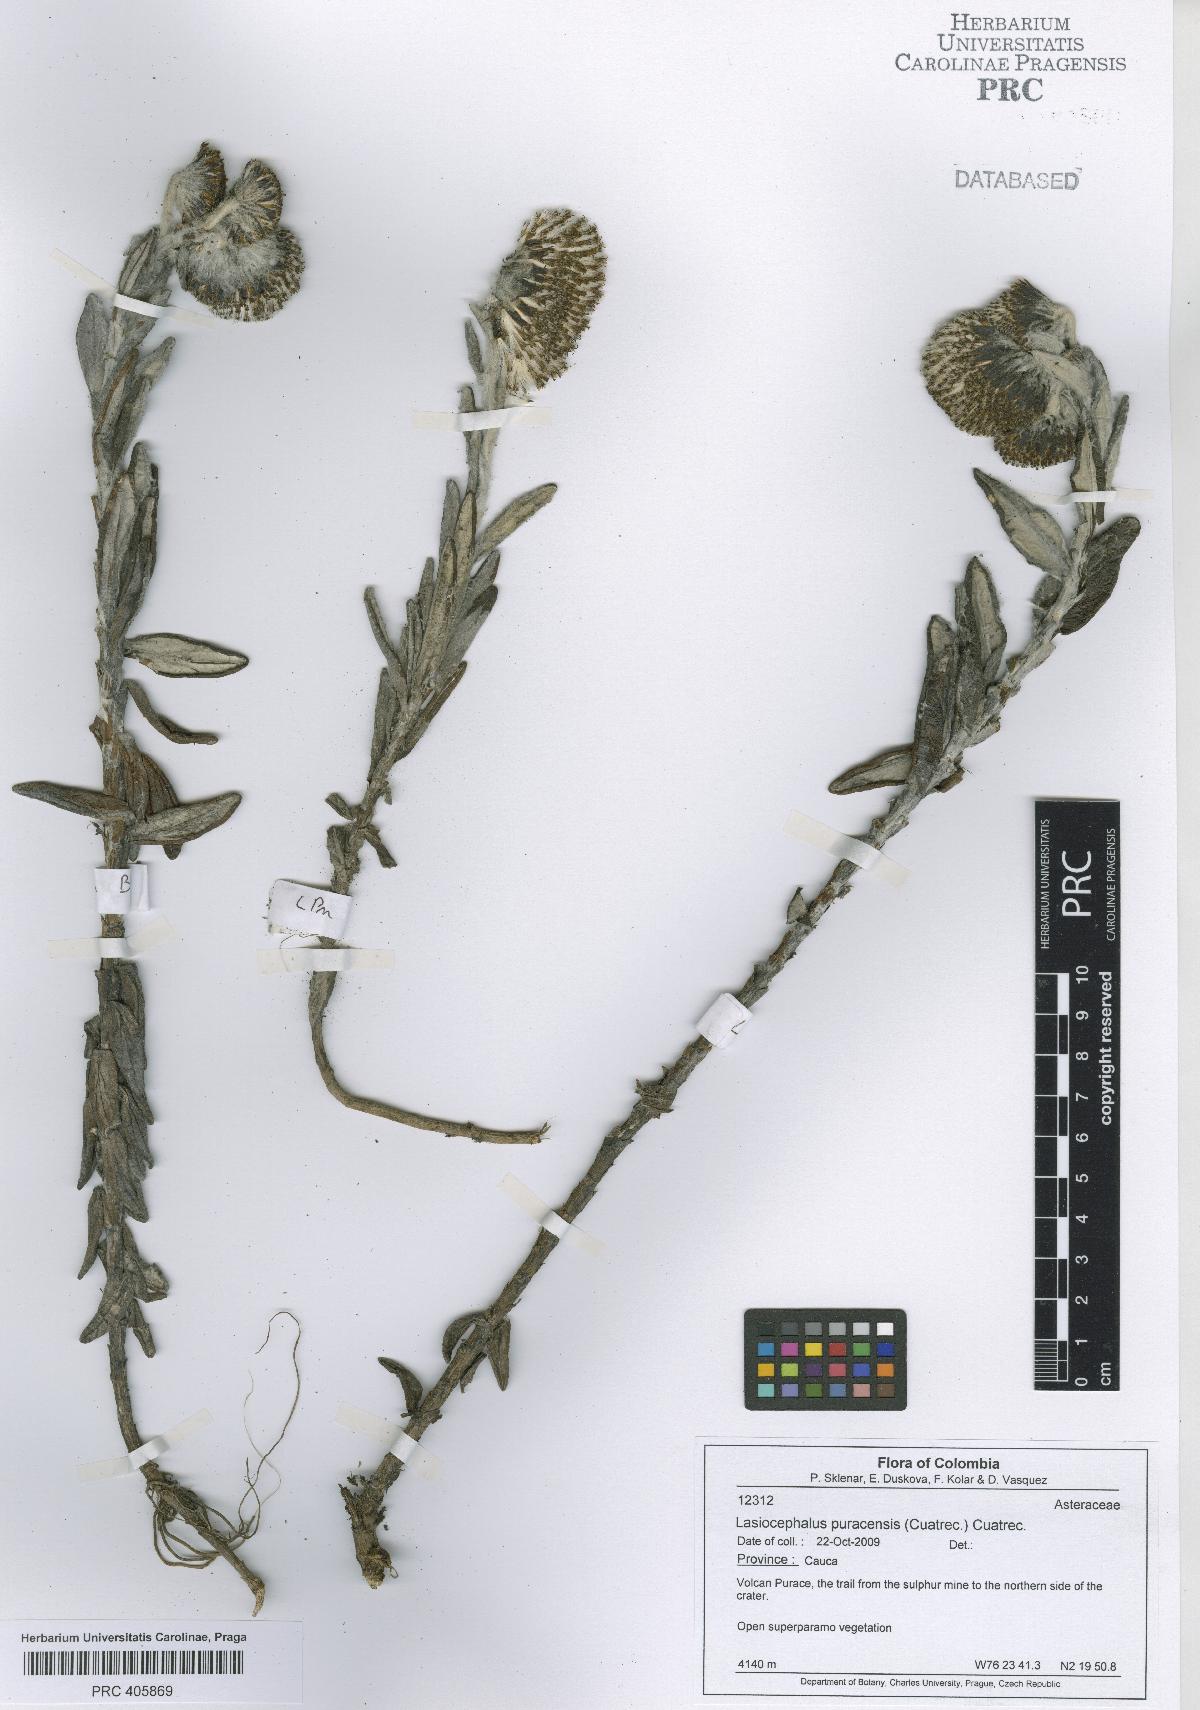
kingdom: Plantae
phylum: Tracheophyta
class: Magnoliopsida
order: Asterales
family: Asteraceae
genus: Aetheolaena
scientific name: Aetheolaena puracensis
